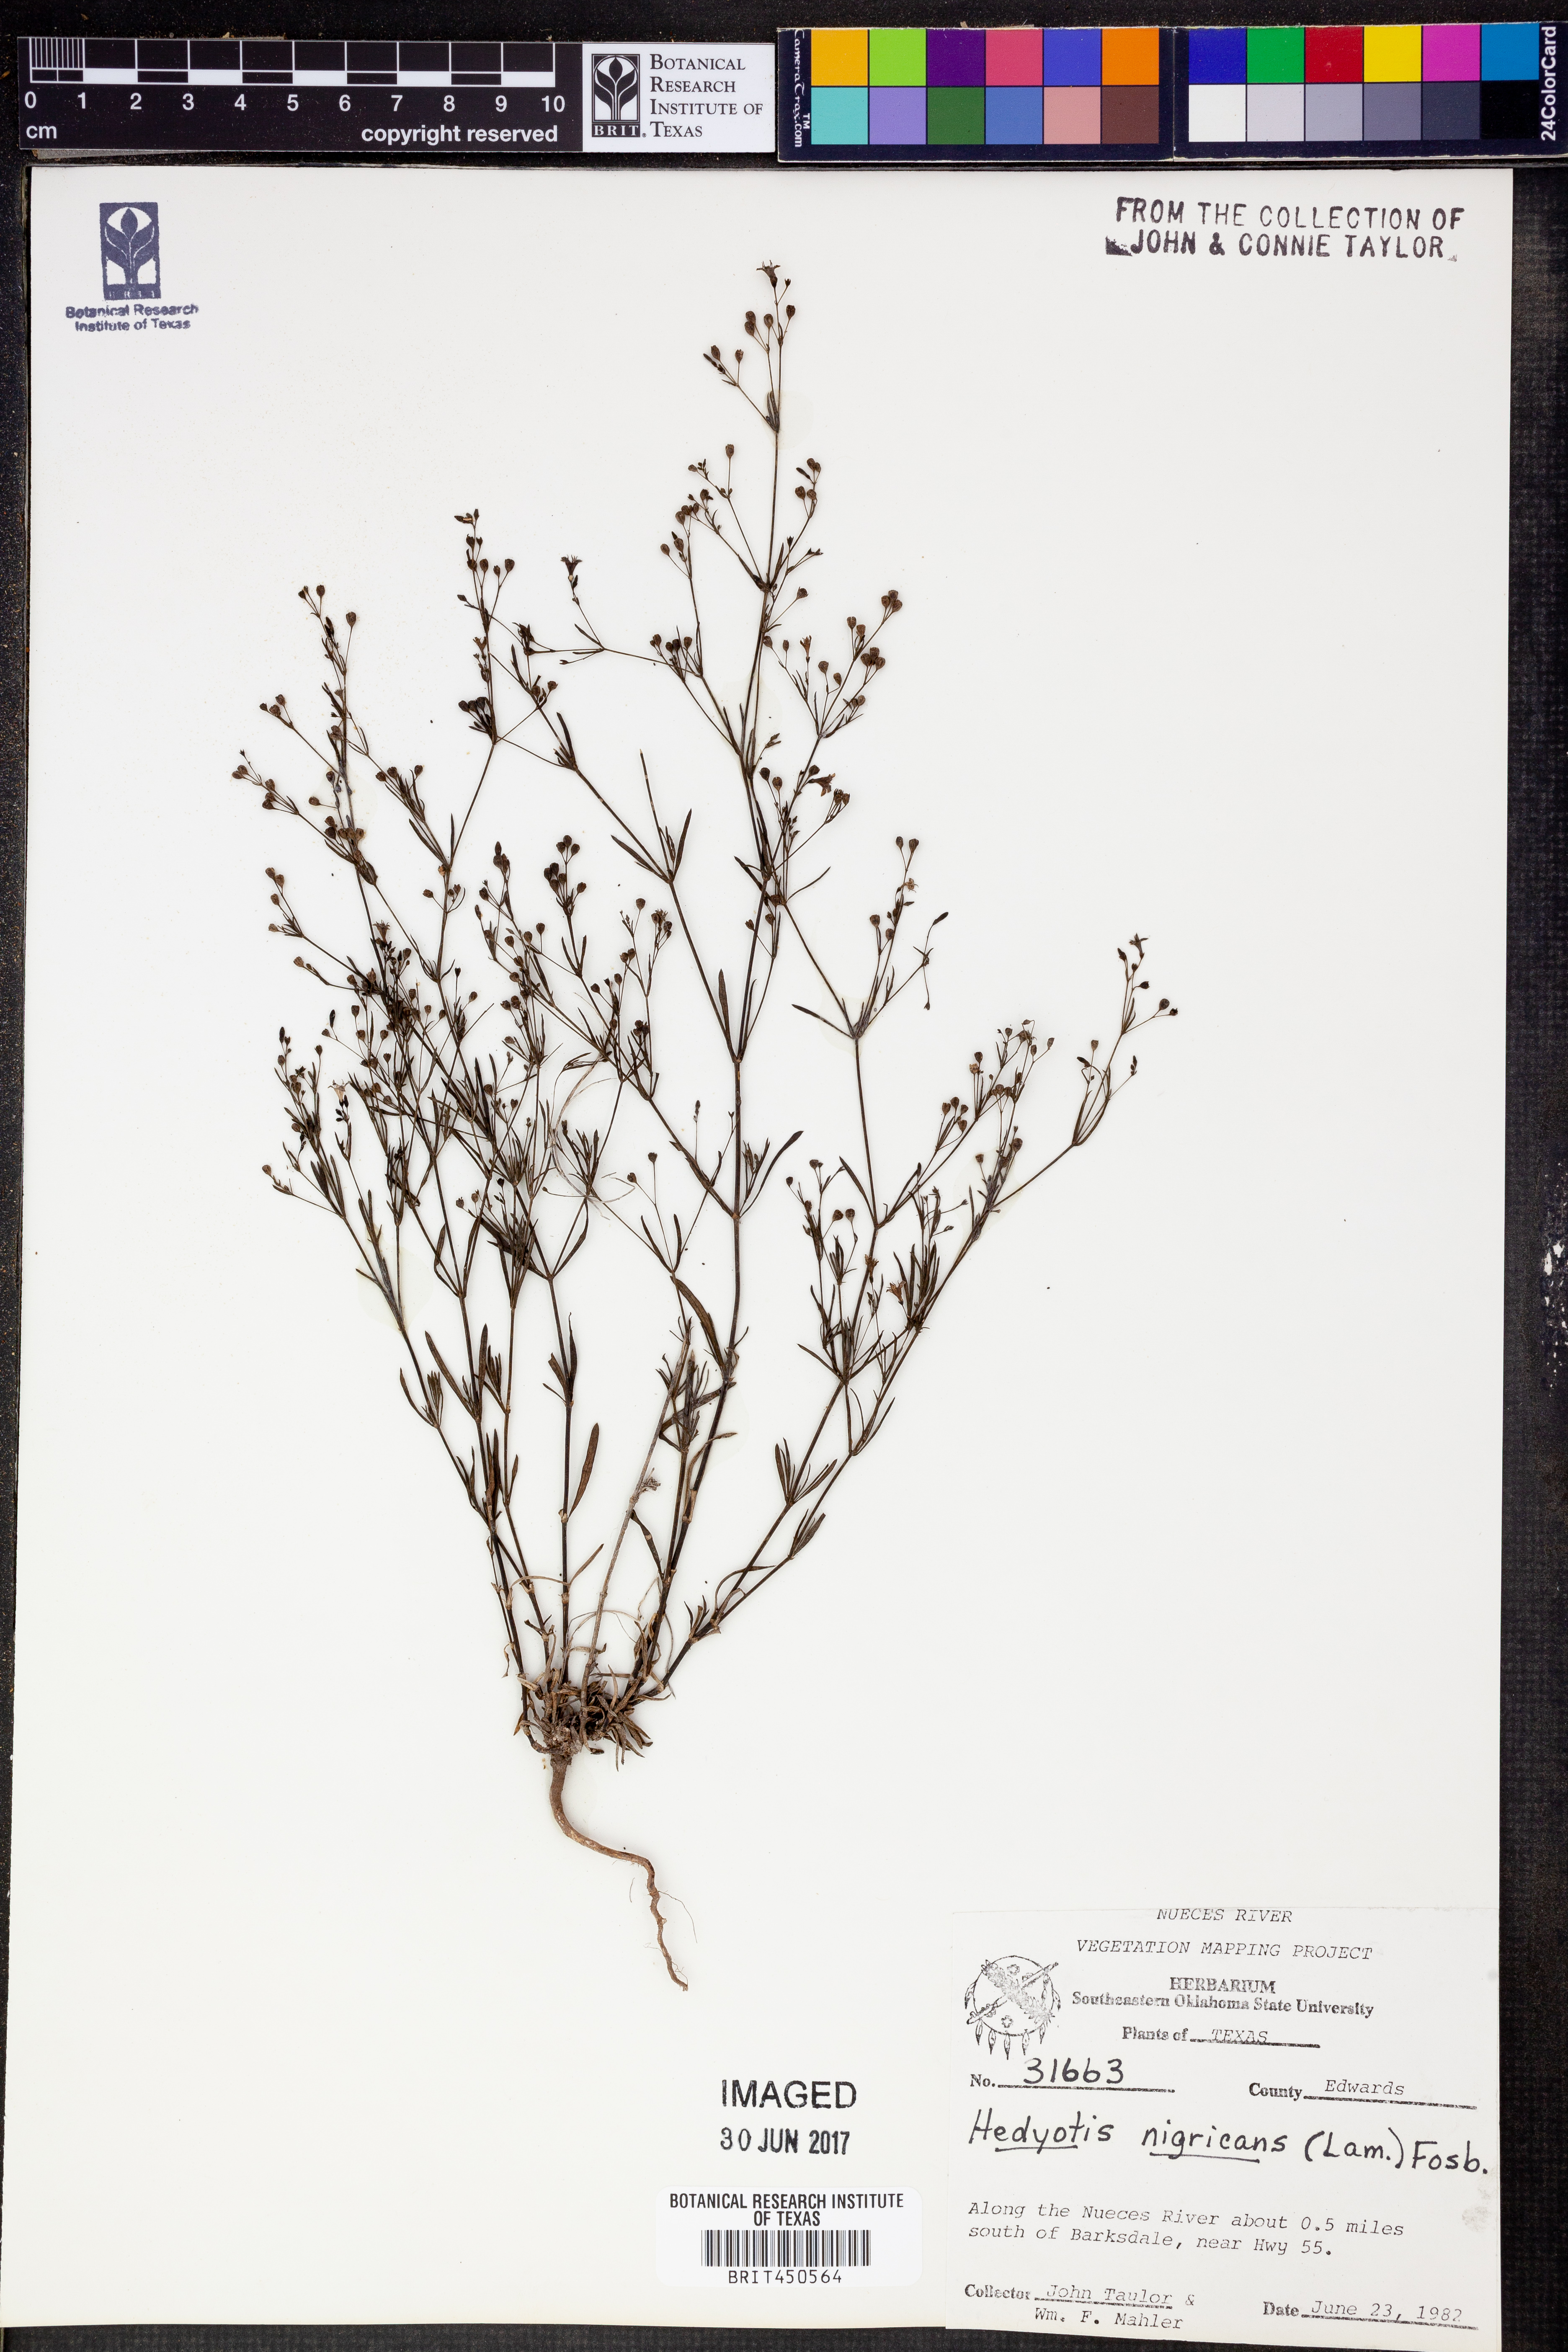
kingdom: Plantae
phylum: Tracheophyta
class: Magnoliopsida
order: Gentianales
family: Rubiaceae
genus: Stenaria
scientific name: Stenaria nigricans
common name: Diamondflowers
